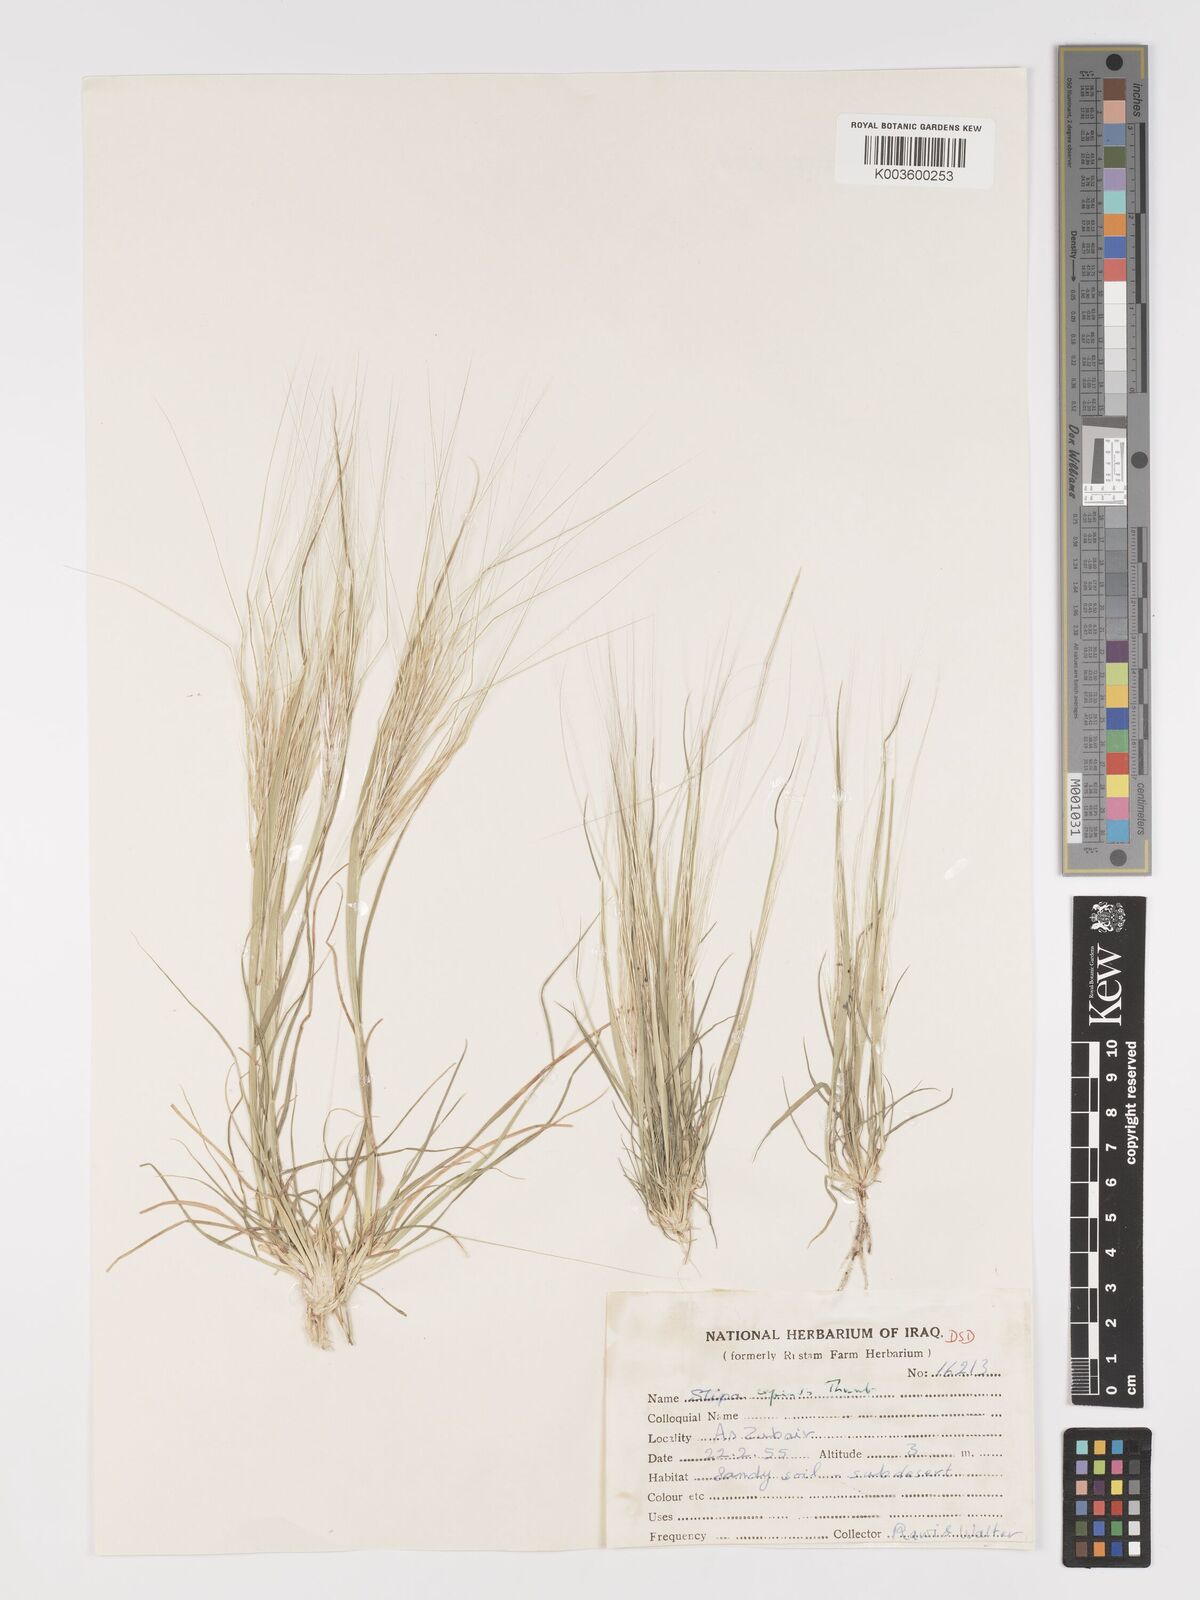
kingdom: Plantae
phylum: Tracheophyta
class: Liliopsida
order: Poales
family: Poaceae
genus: Stipellula
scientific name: Stipellula capensis
